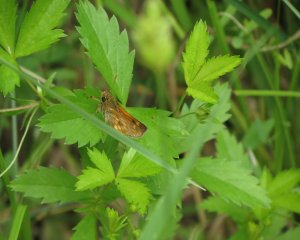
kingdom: Animalia
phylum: Arthropoda
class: Insecta
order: Lepidoptera
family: Hesperiidae
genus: Polites
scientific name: Polites
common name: Long Dash Skipper
